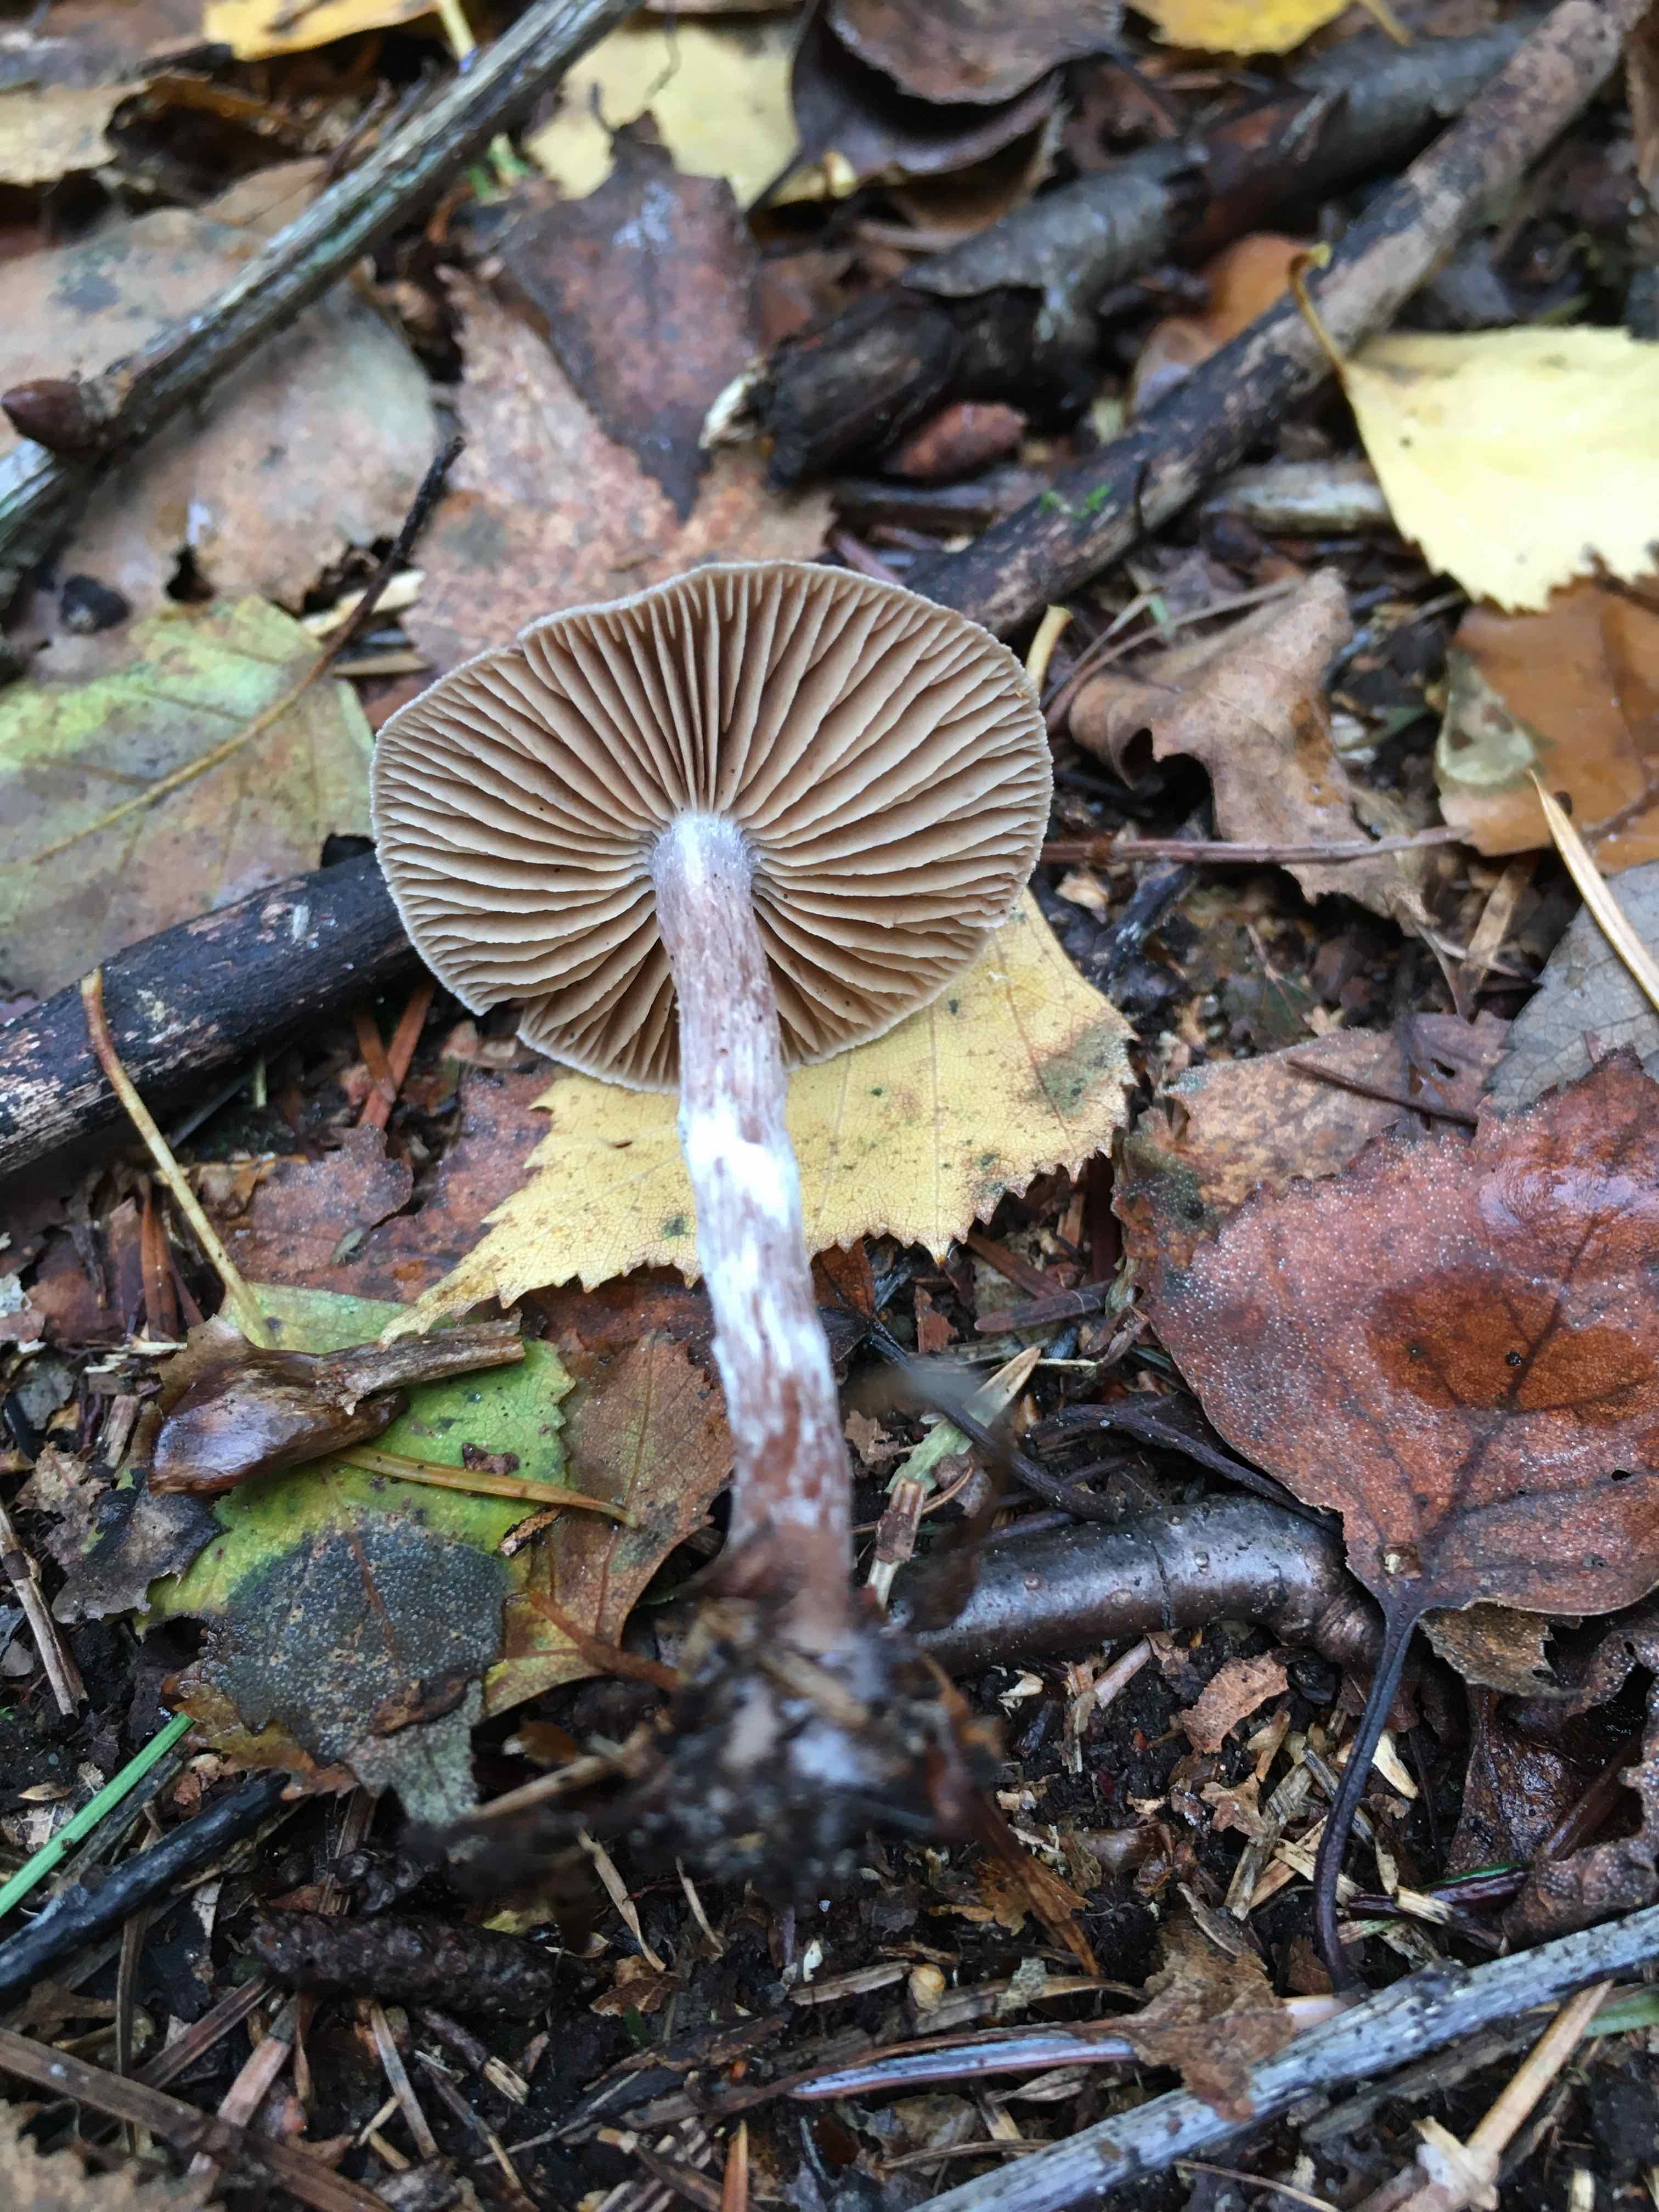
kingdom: Fungi
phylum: Basidiomycota
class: Agaricomycetes
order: Agaricales
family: Cortinariaceae
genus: Cortinarius
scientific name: Cortinarius
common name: pelargonie-slørhat
